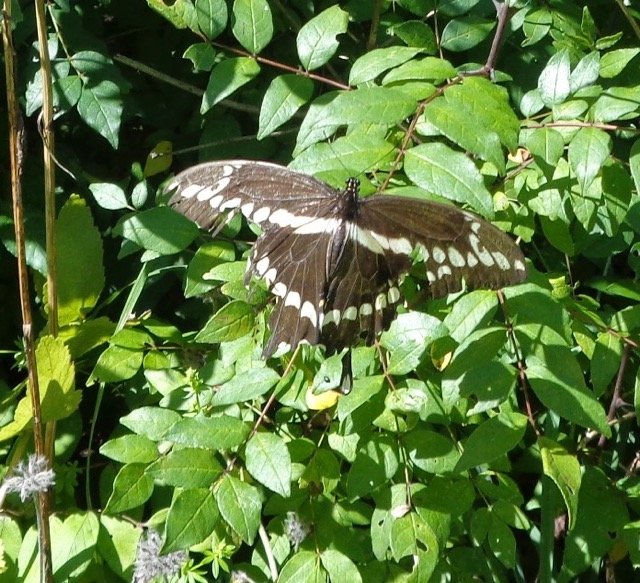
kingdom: Animalia
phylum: Arthropoda
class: Insecta
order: Lepidoptera
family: Papilionidae
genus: Papilio
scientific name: Papilio cresphontes
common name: Eastern Giant Swallowtail
